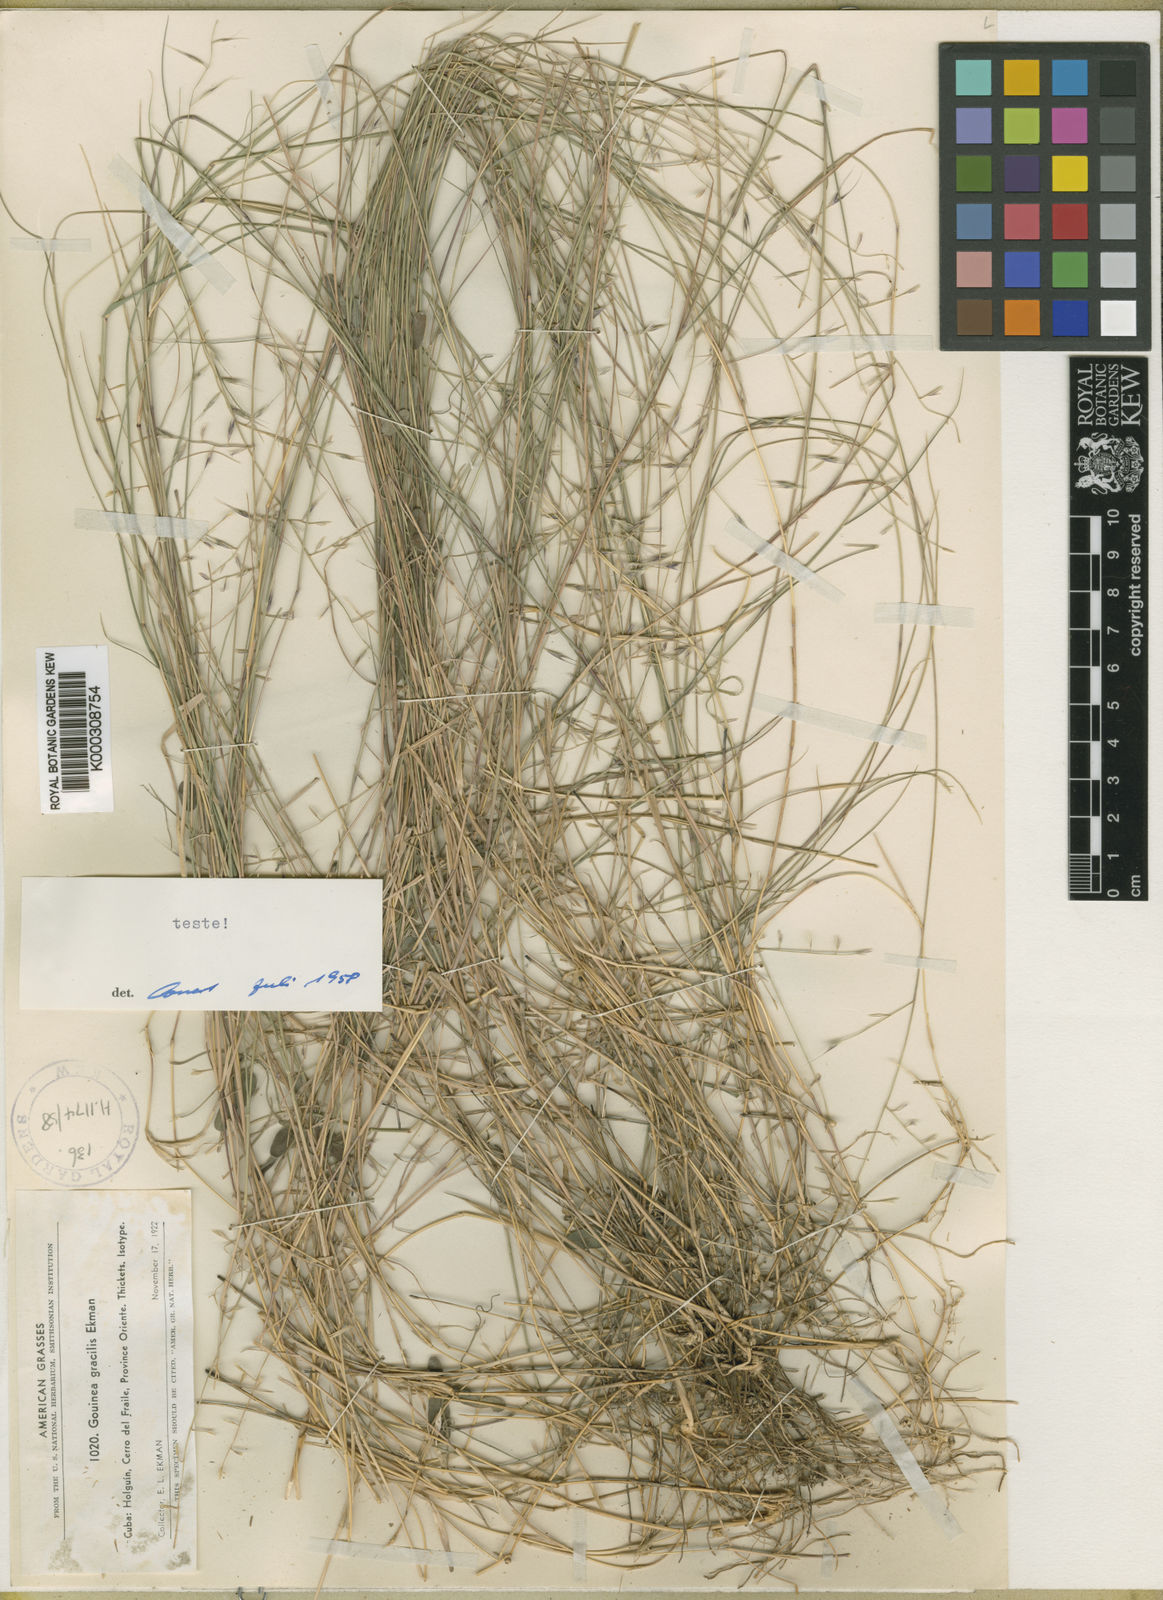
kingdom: Plantae
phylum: Tracheophyta
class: Liliopsida
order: Poales
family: Poaceae
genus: Gouinia
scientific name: Gouinia gracilis
